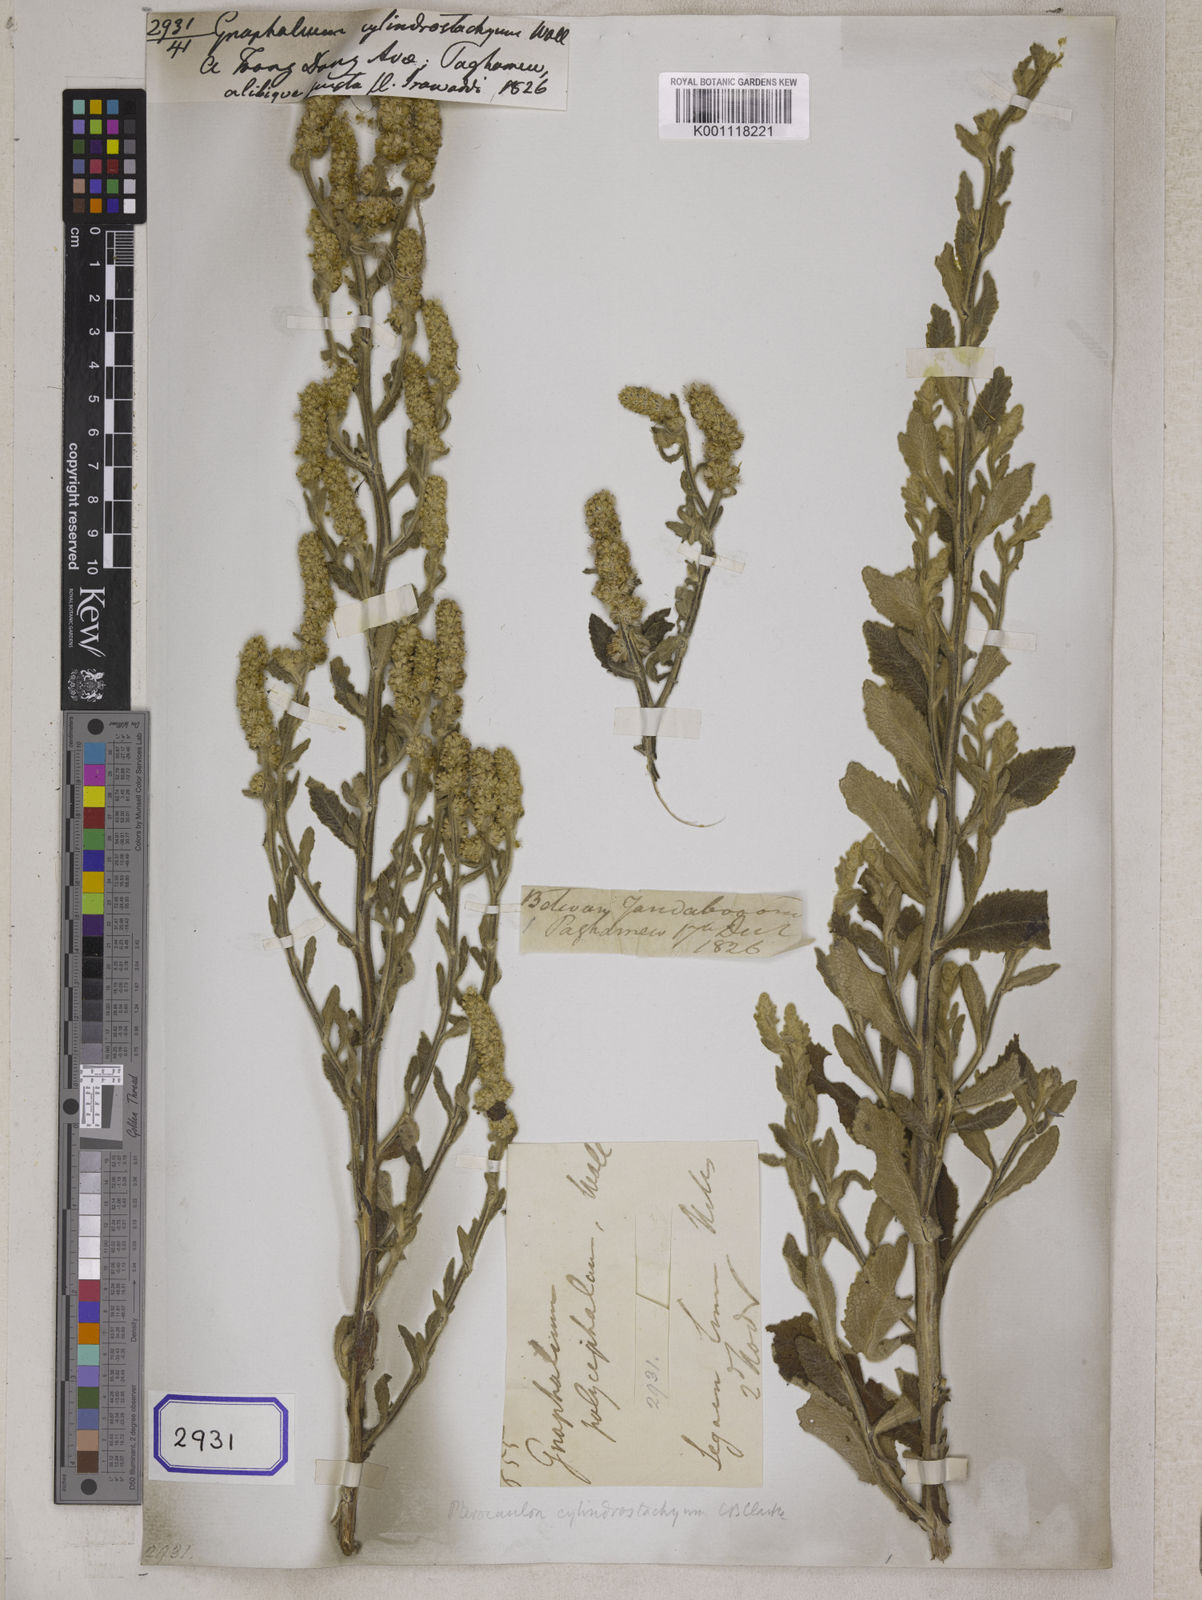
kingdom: Plantae
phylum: Tracheophyta
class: Magnoliopsida
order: Asterales
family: Asteraceae
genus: Pterocaulon
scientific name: Pterocaulon redolens
